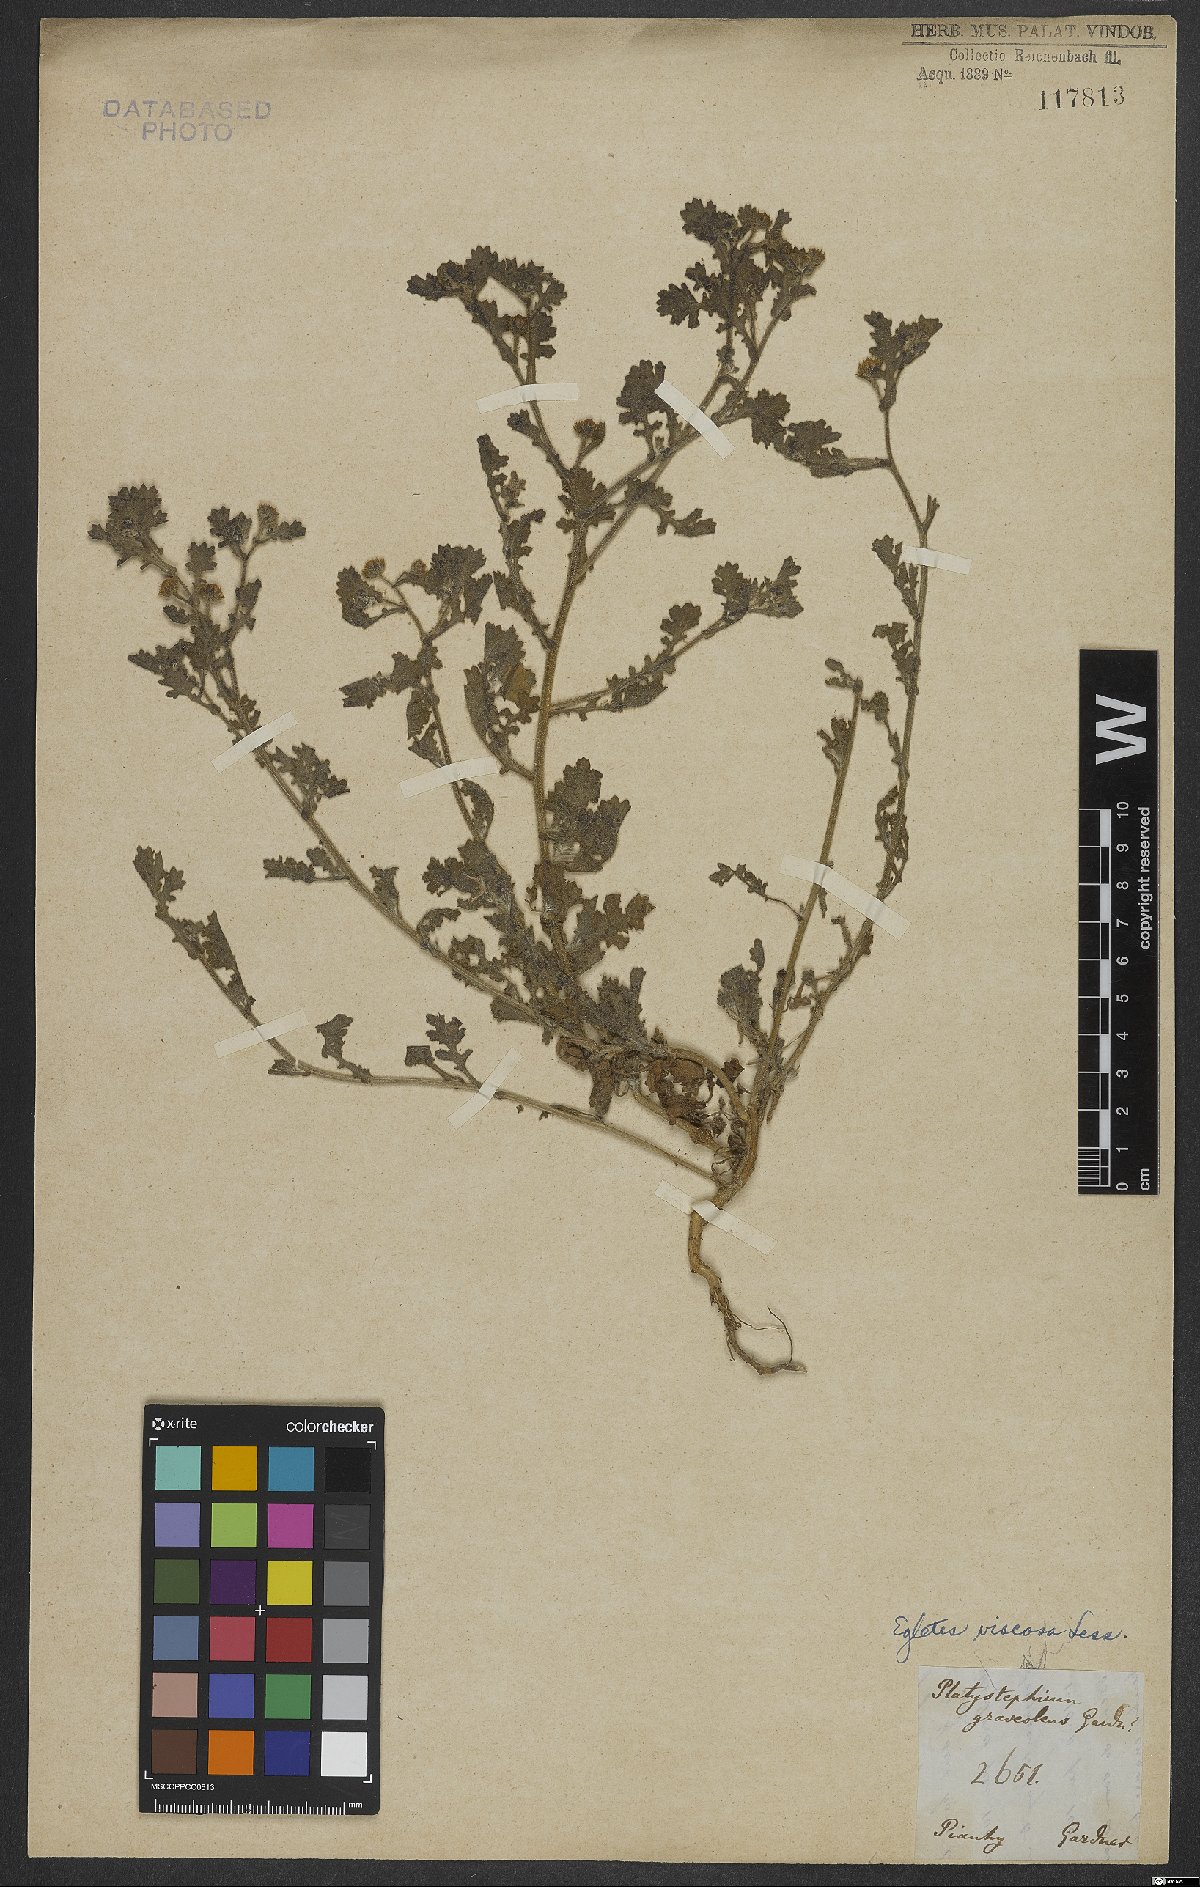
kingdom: Plantae
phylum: Tracheophyta
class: Magnoliopsida
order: Asterales
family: Asteraceae
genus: Egletes
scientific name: Egletes viscosa
